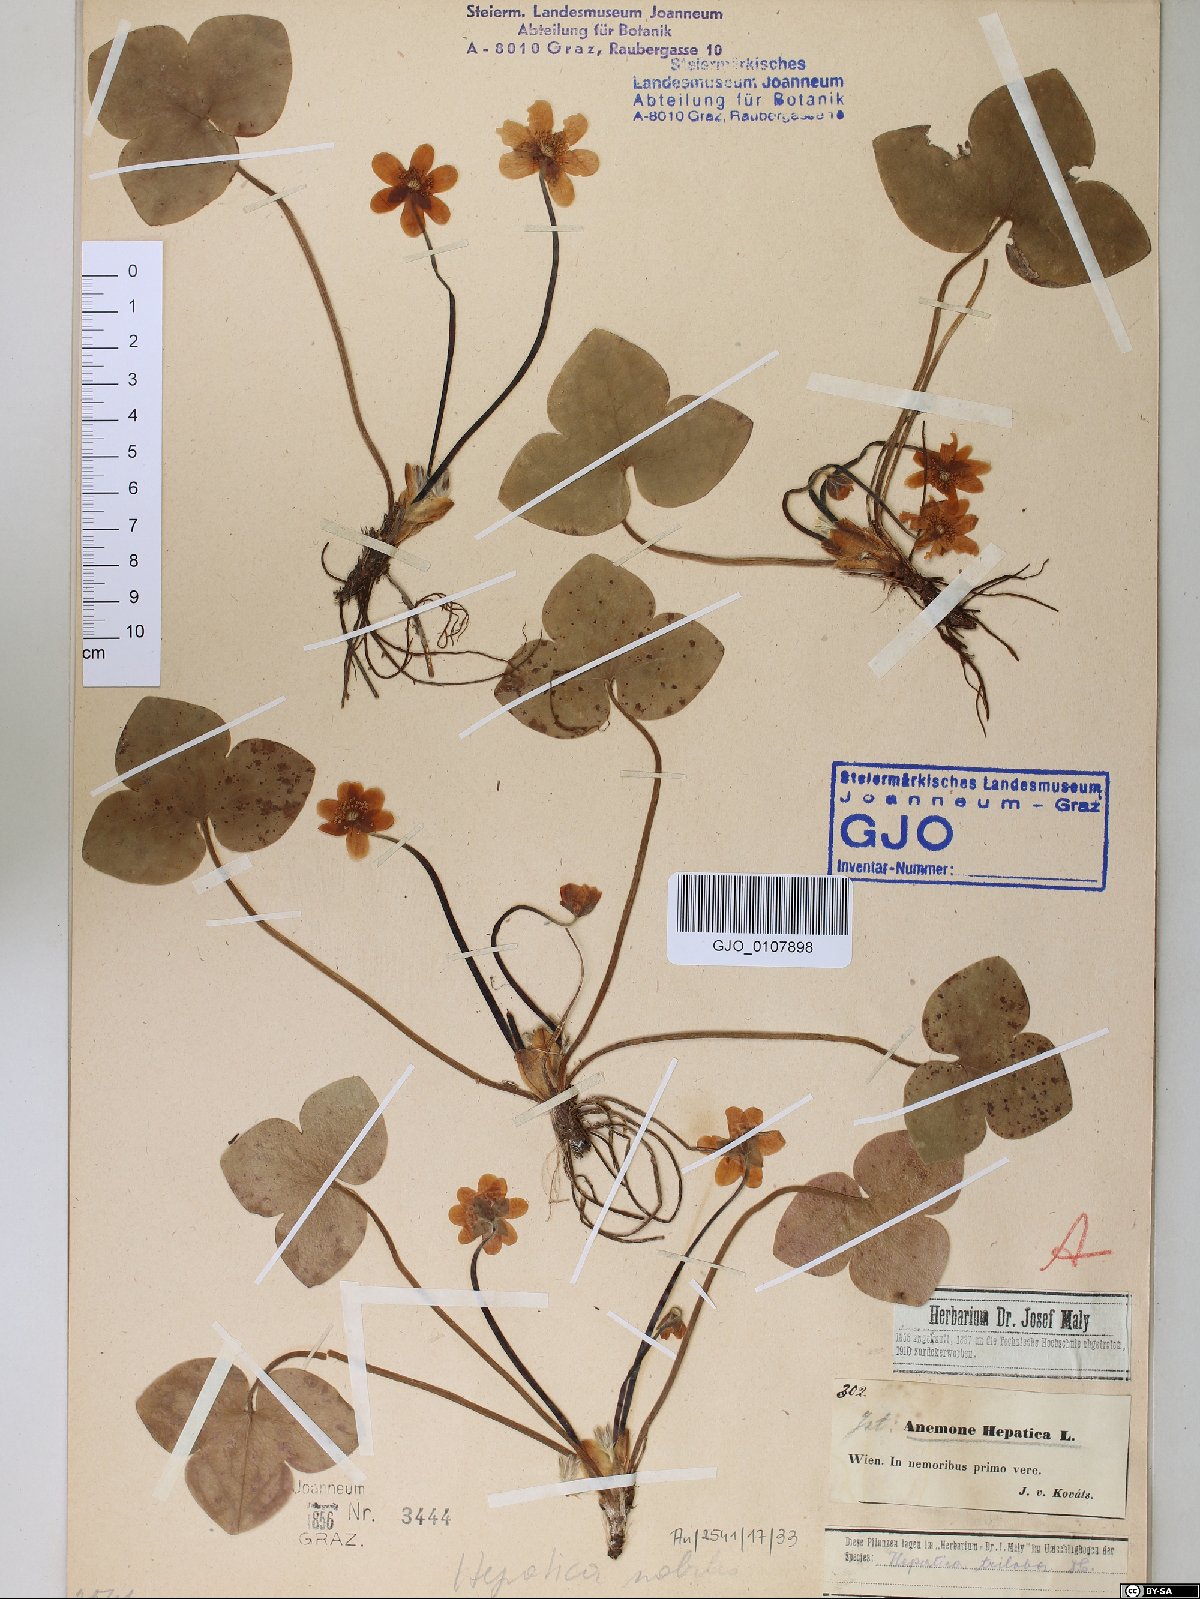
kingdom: Plantae
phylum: Tracheophyta
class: Magnoliopsida
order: Ranunculales
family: Ranunculaceae
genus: Hepatica
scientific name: Hepatica nobilis
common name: Liverleaf
